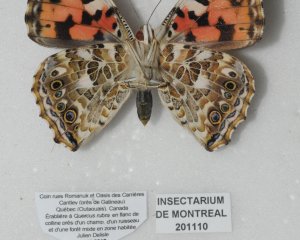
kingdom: Animalia
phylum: Arthropoda
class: Insecta
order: Lepidoptera
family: Nymphalidae
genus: Vanessa
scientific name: Vanessa cardui
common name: Painted Lady
